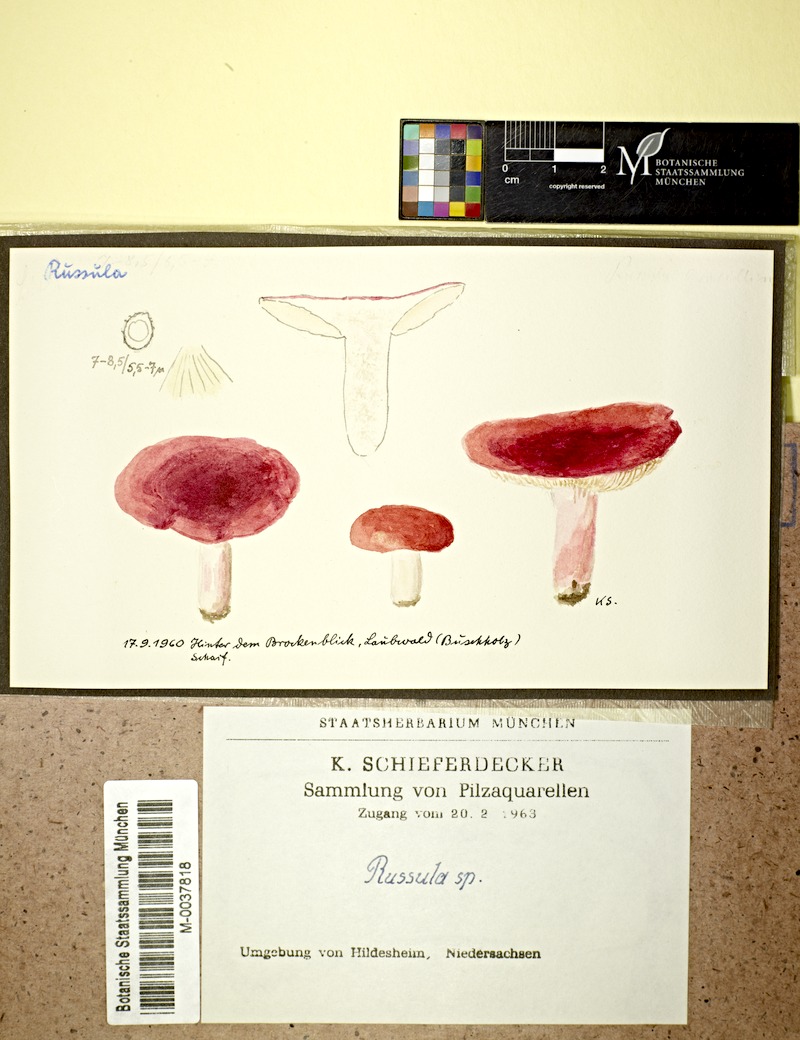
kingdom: Fungi
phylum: Basidiomycota
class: Agaricomycetes
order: Russulales
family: Russulaceae
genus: Russula
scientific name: Russula
